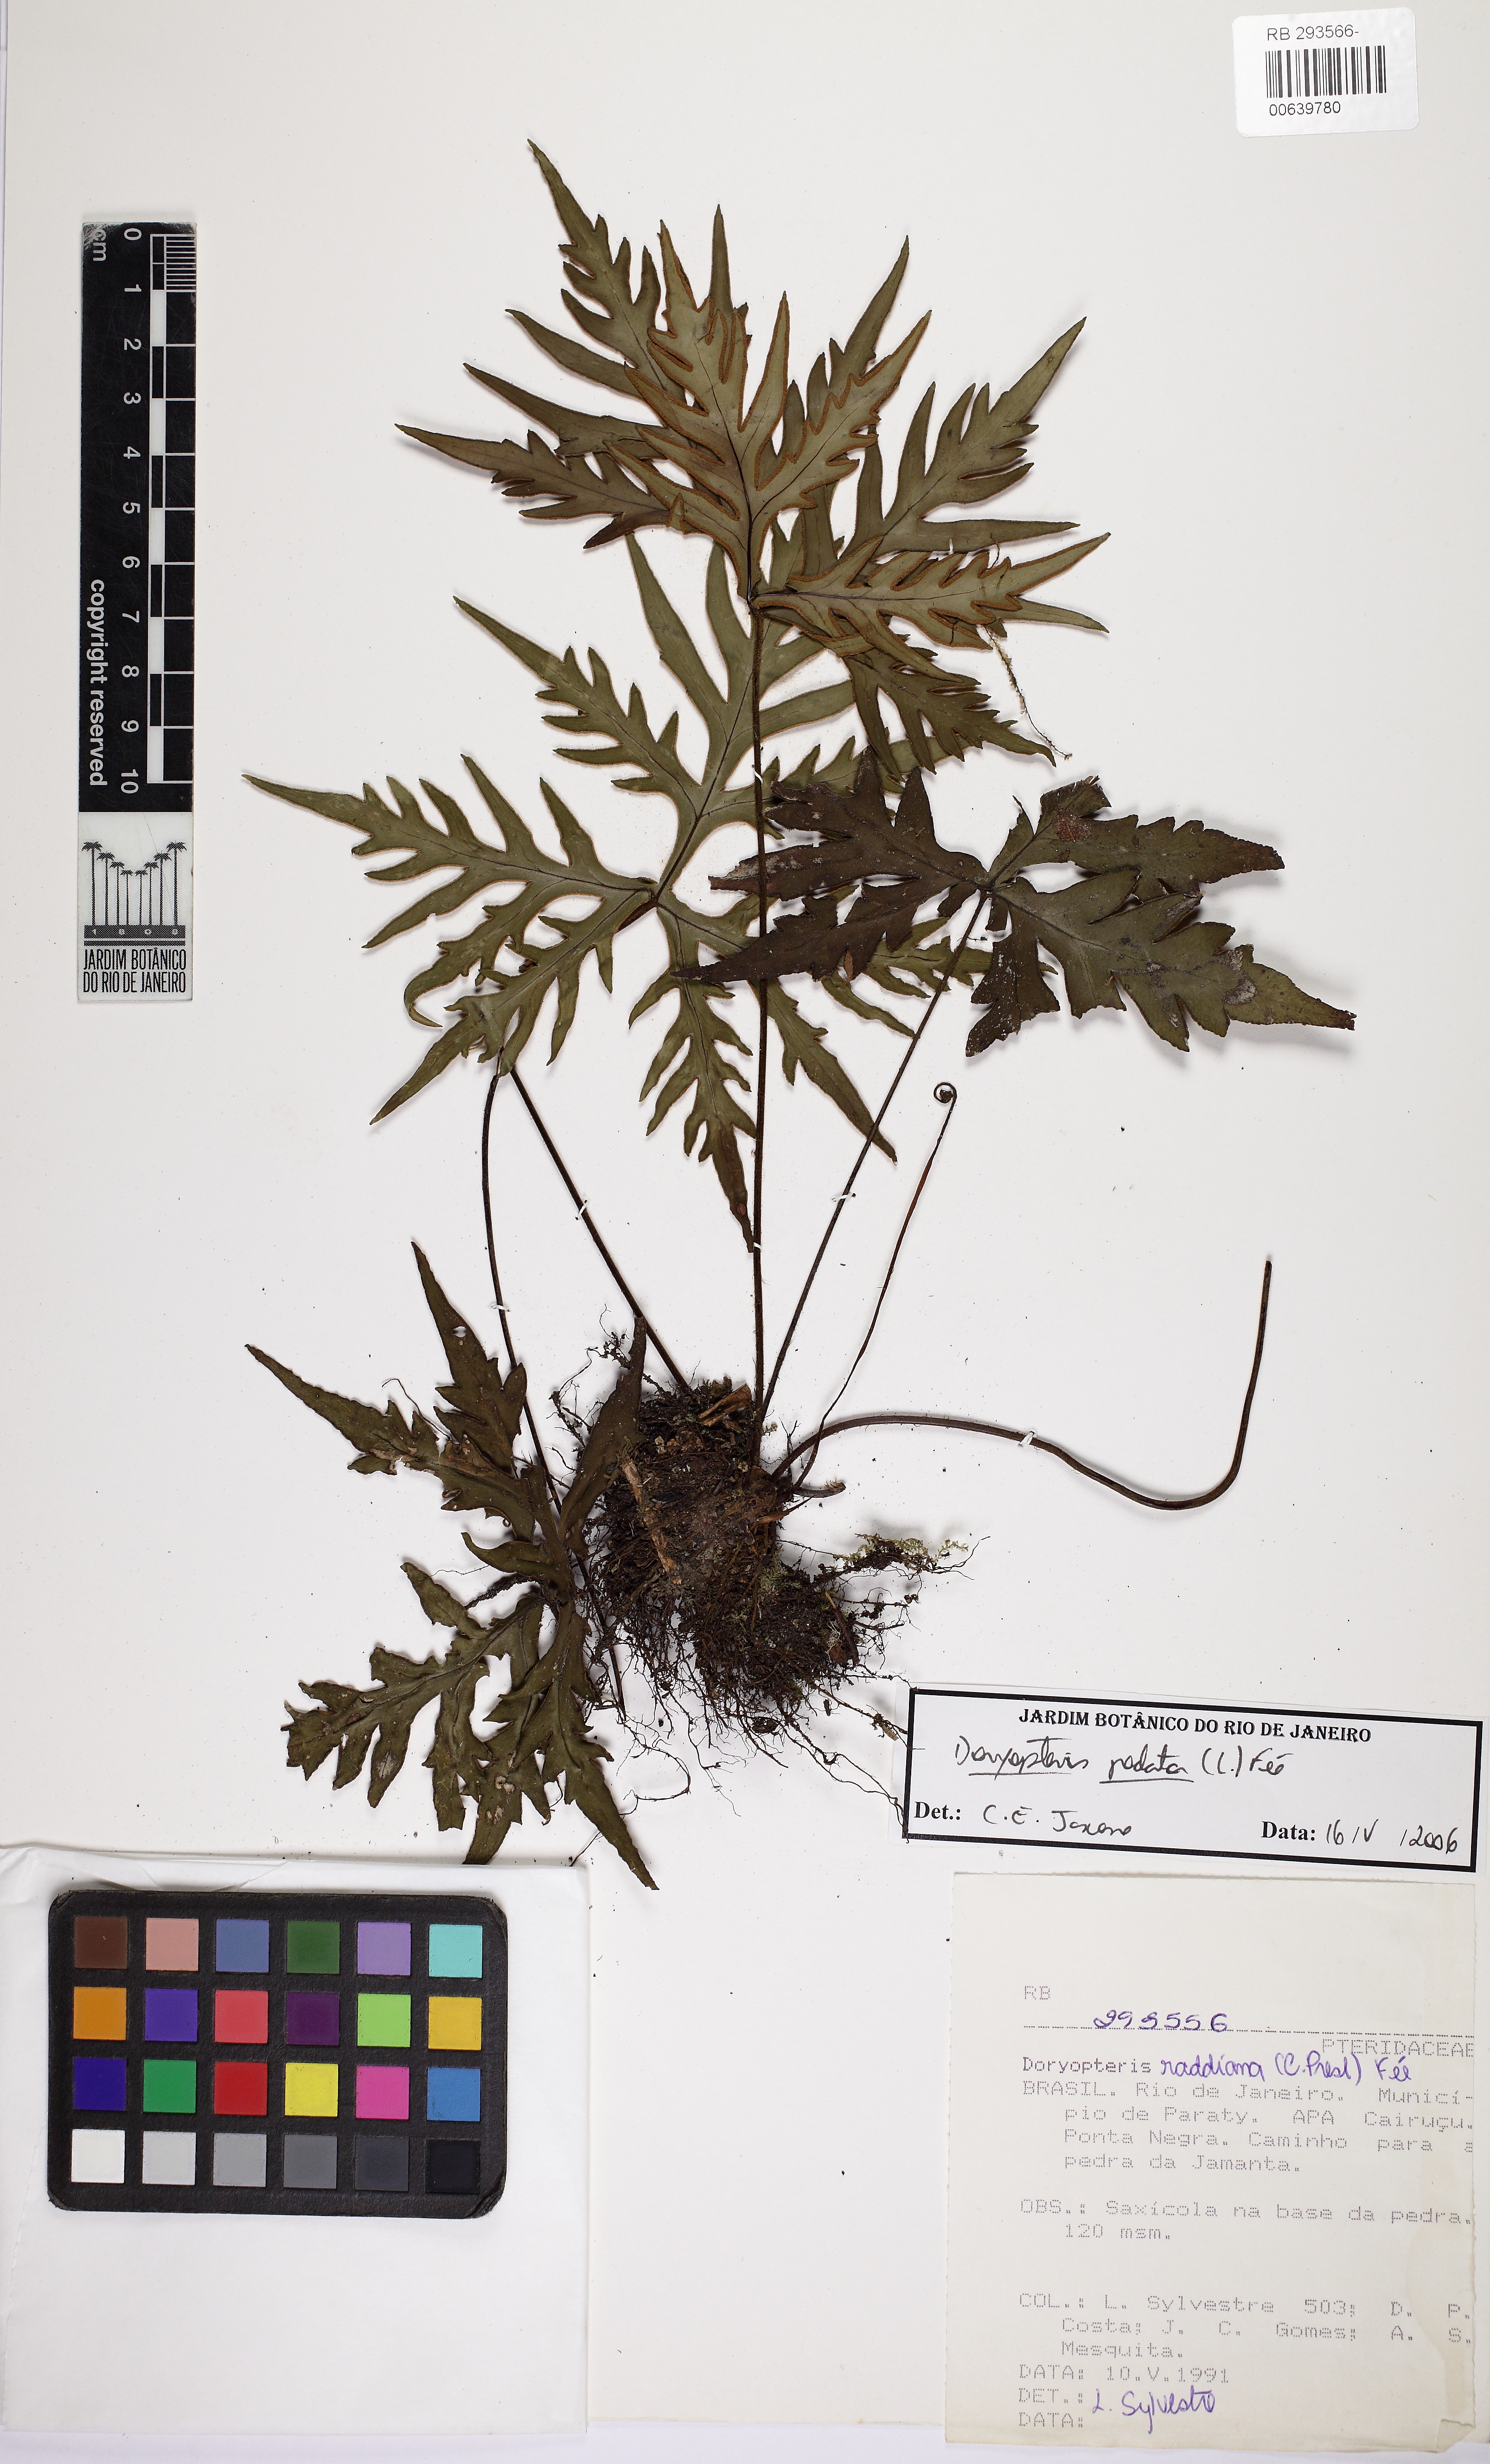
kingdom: Plantae
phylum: Tracheophyta
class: Polypodiopsida
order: Polypodiales
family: Pteridaceae
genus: Doryopteris
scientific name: Doryopteris pentagona
